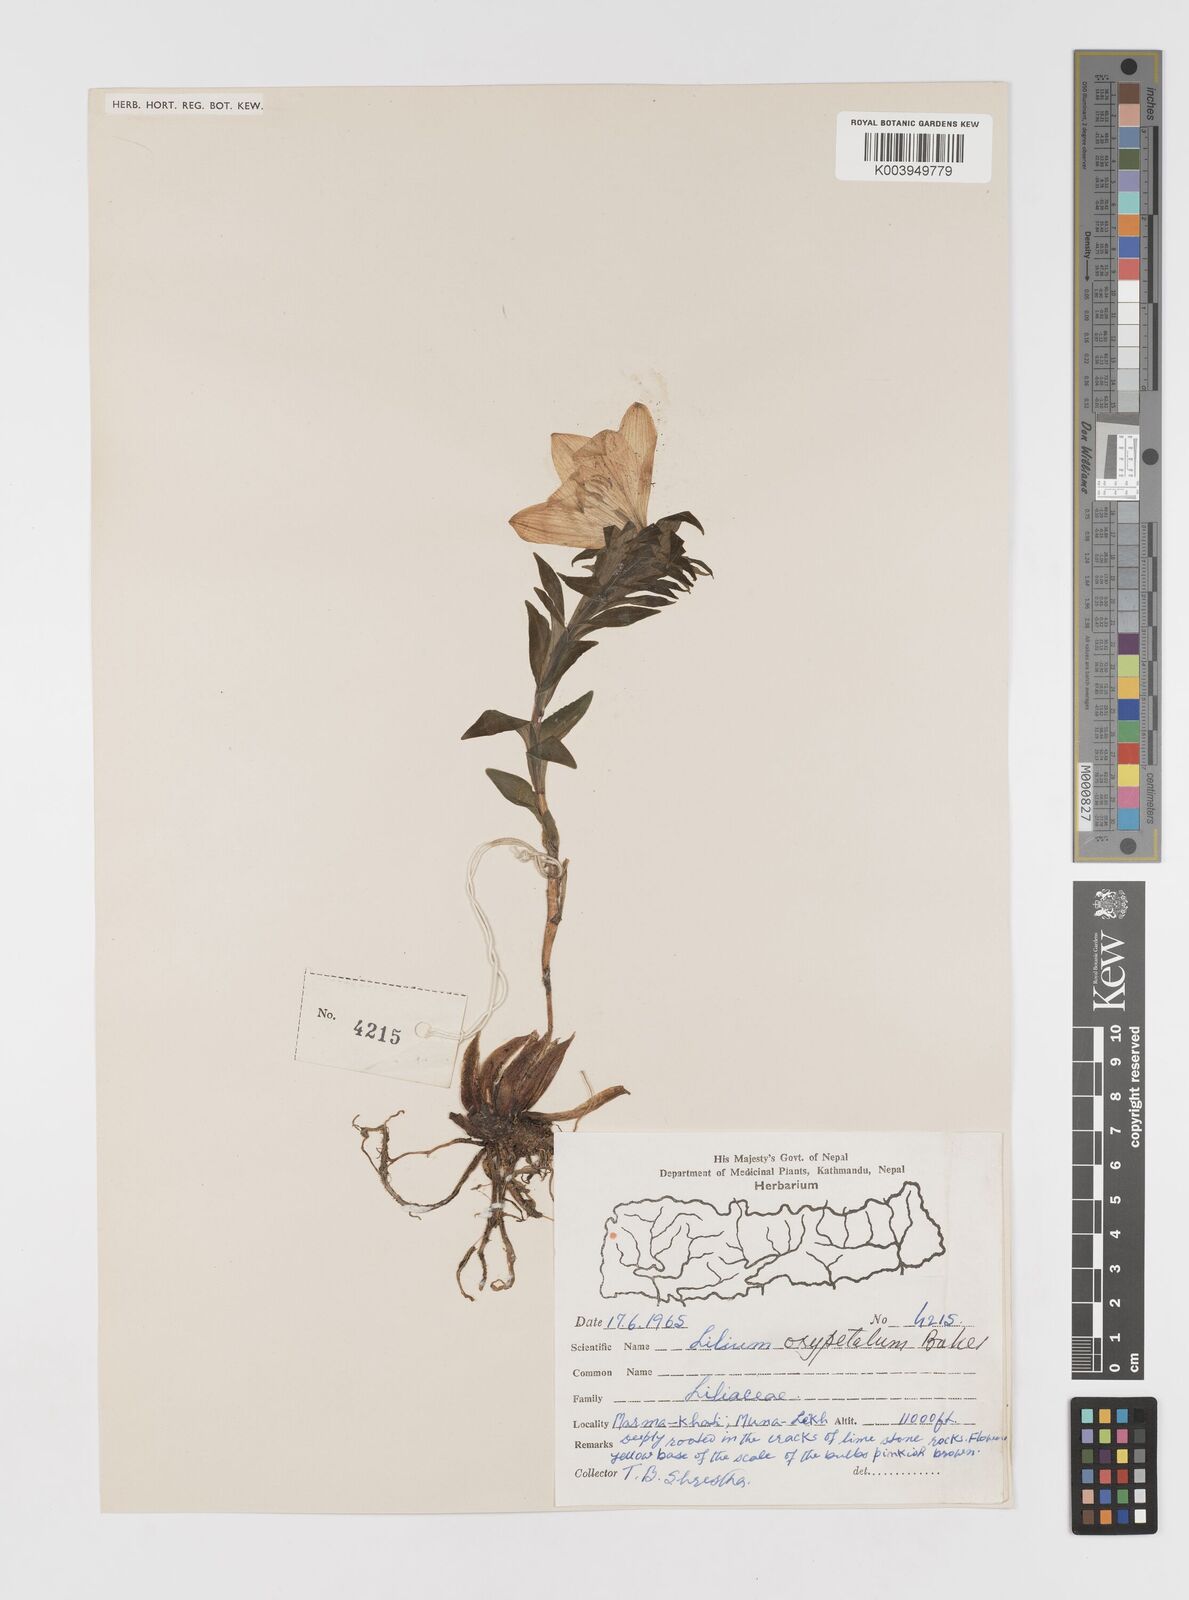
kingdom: Plantae
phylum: Tracheophyta
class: Liliopsida
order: Liliales
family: Liliaceae
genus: Lilium
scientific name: Lilium oxypetalum
